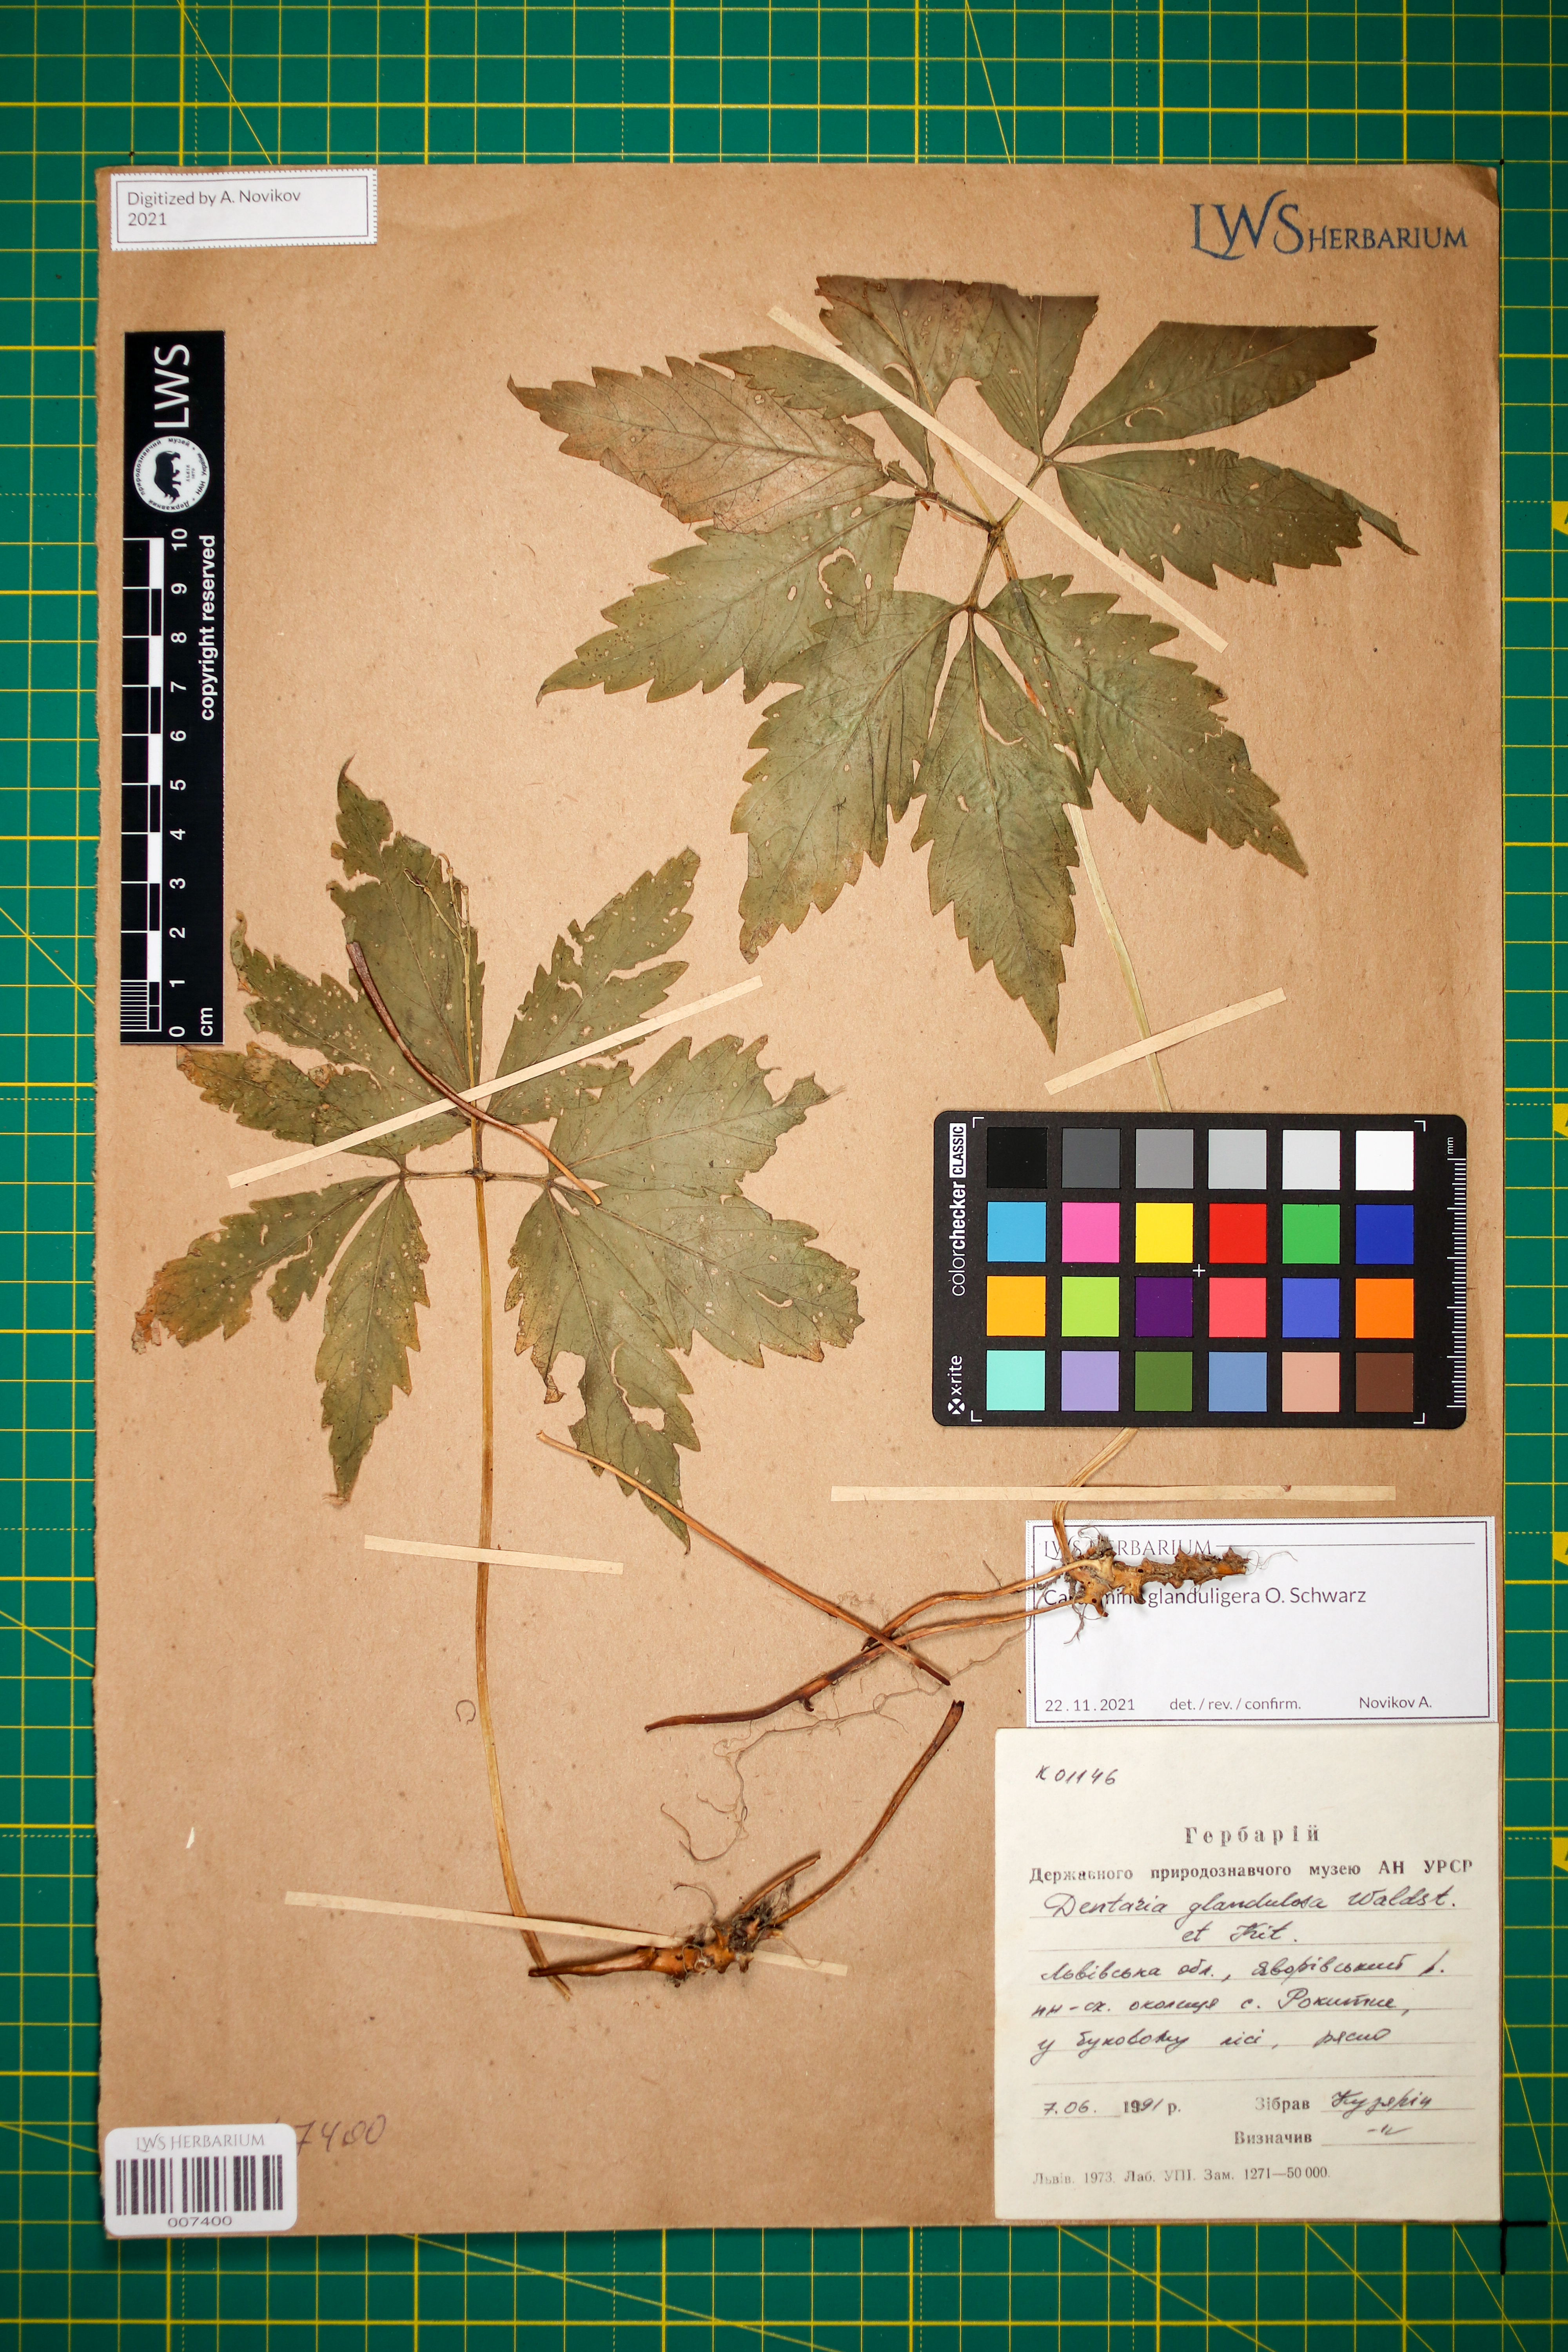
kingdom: Plantae
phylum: Tracheophyta
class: Magnoliopsida
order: Brassicales
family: Brassicaceae
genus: Cardamine
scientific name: Cardamine glanduligera
